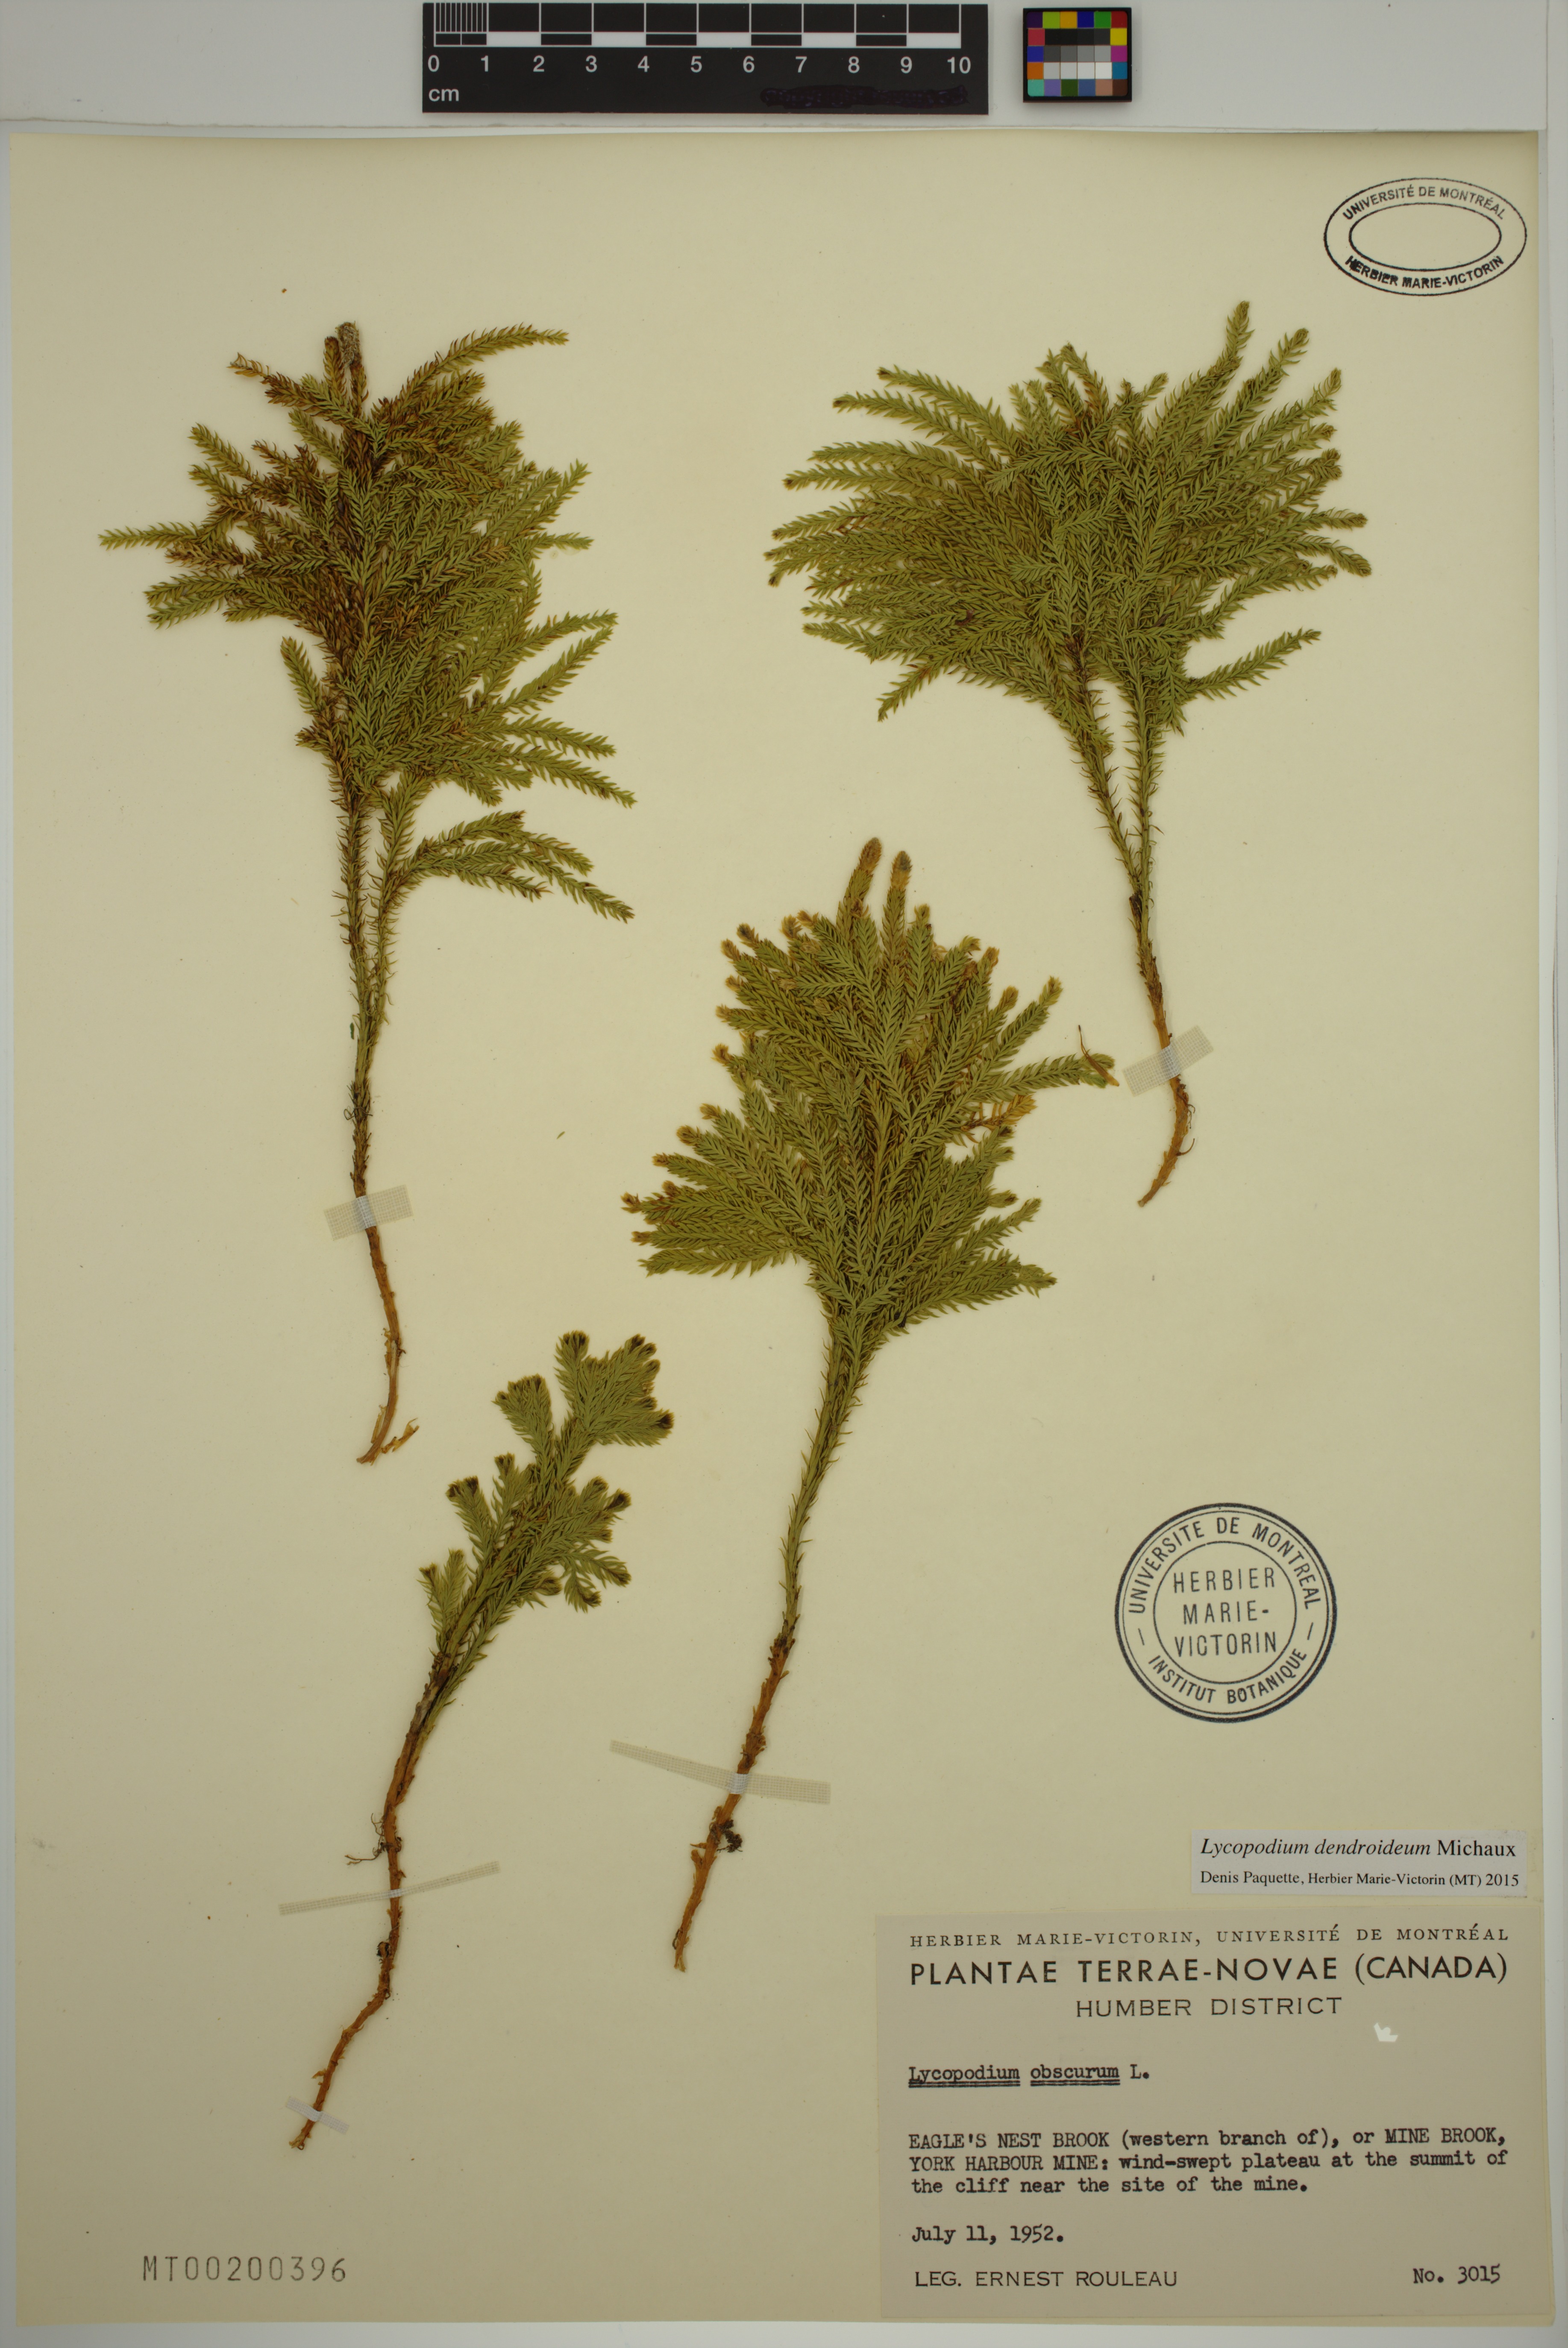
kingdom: Plantae
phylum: Tracheophyta
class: Lycopodiopsida
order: Lycopodiales
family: Lycopodiaceae
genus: Dendrolycopodium
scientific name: Dendrolycopodium dendroideum
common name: Northern tree-clubmoss
